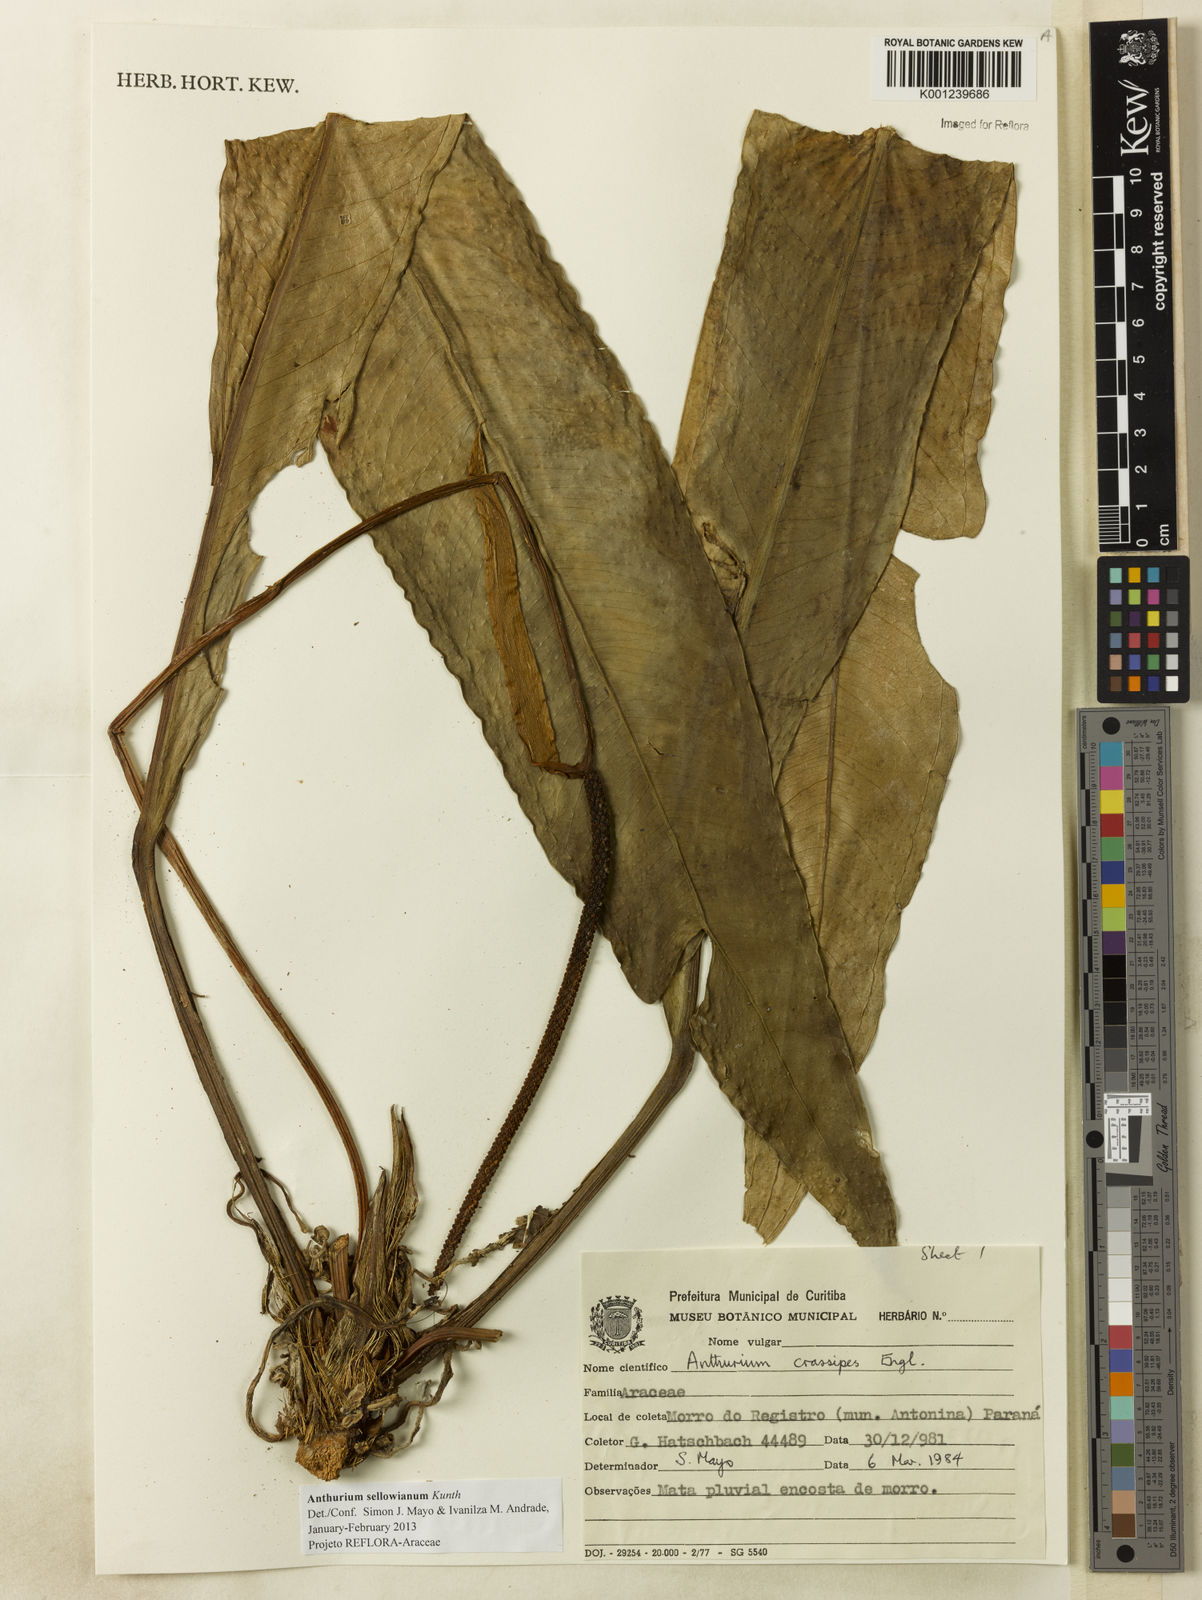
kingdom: Plantae
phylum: Tracheophyta
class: Liliopsida
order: Alismatales
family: Araceae
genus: Anthurium
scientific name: Anthurium sellowianum
